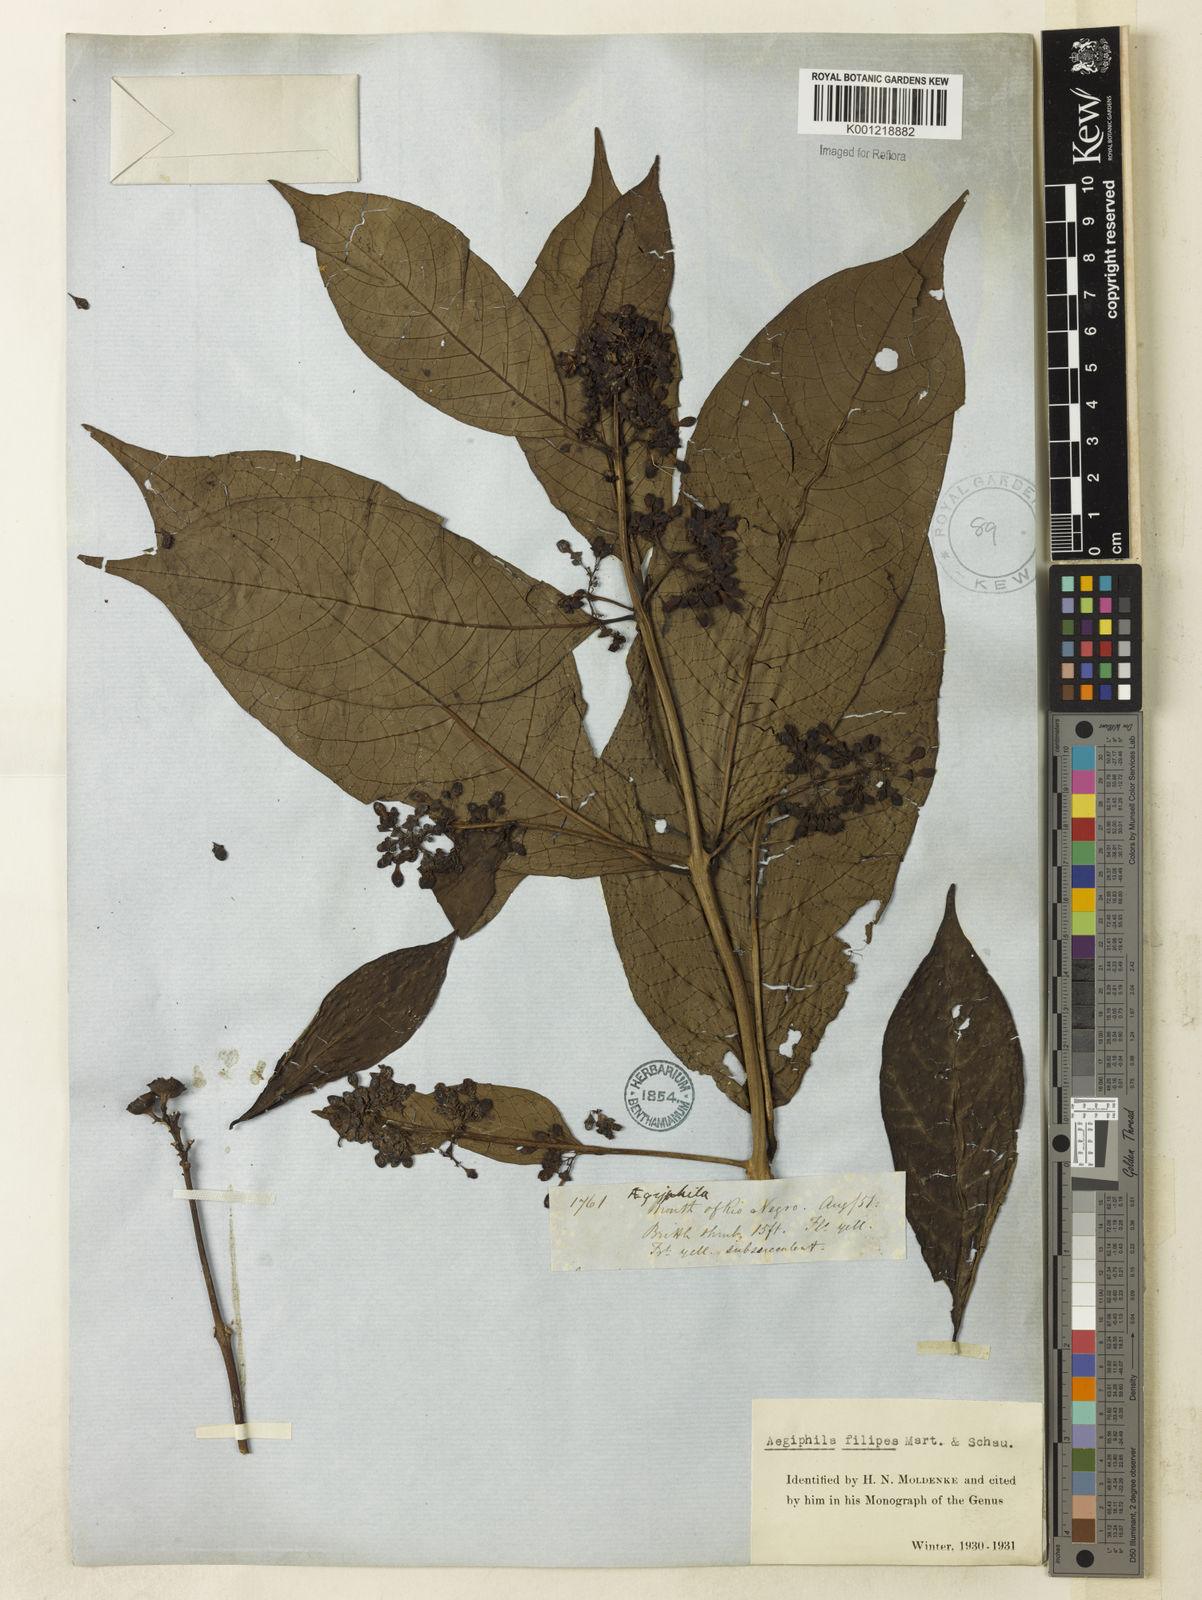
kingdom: Plantae
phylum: Tracheophyta
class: Magnoliopsida
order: Lamiales
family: Lamiaceae
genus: Aegiphila
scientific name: Aegiphila filipes
